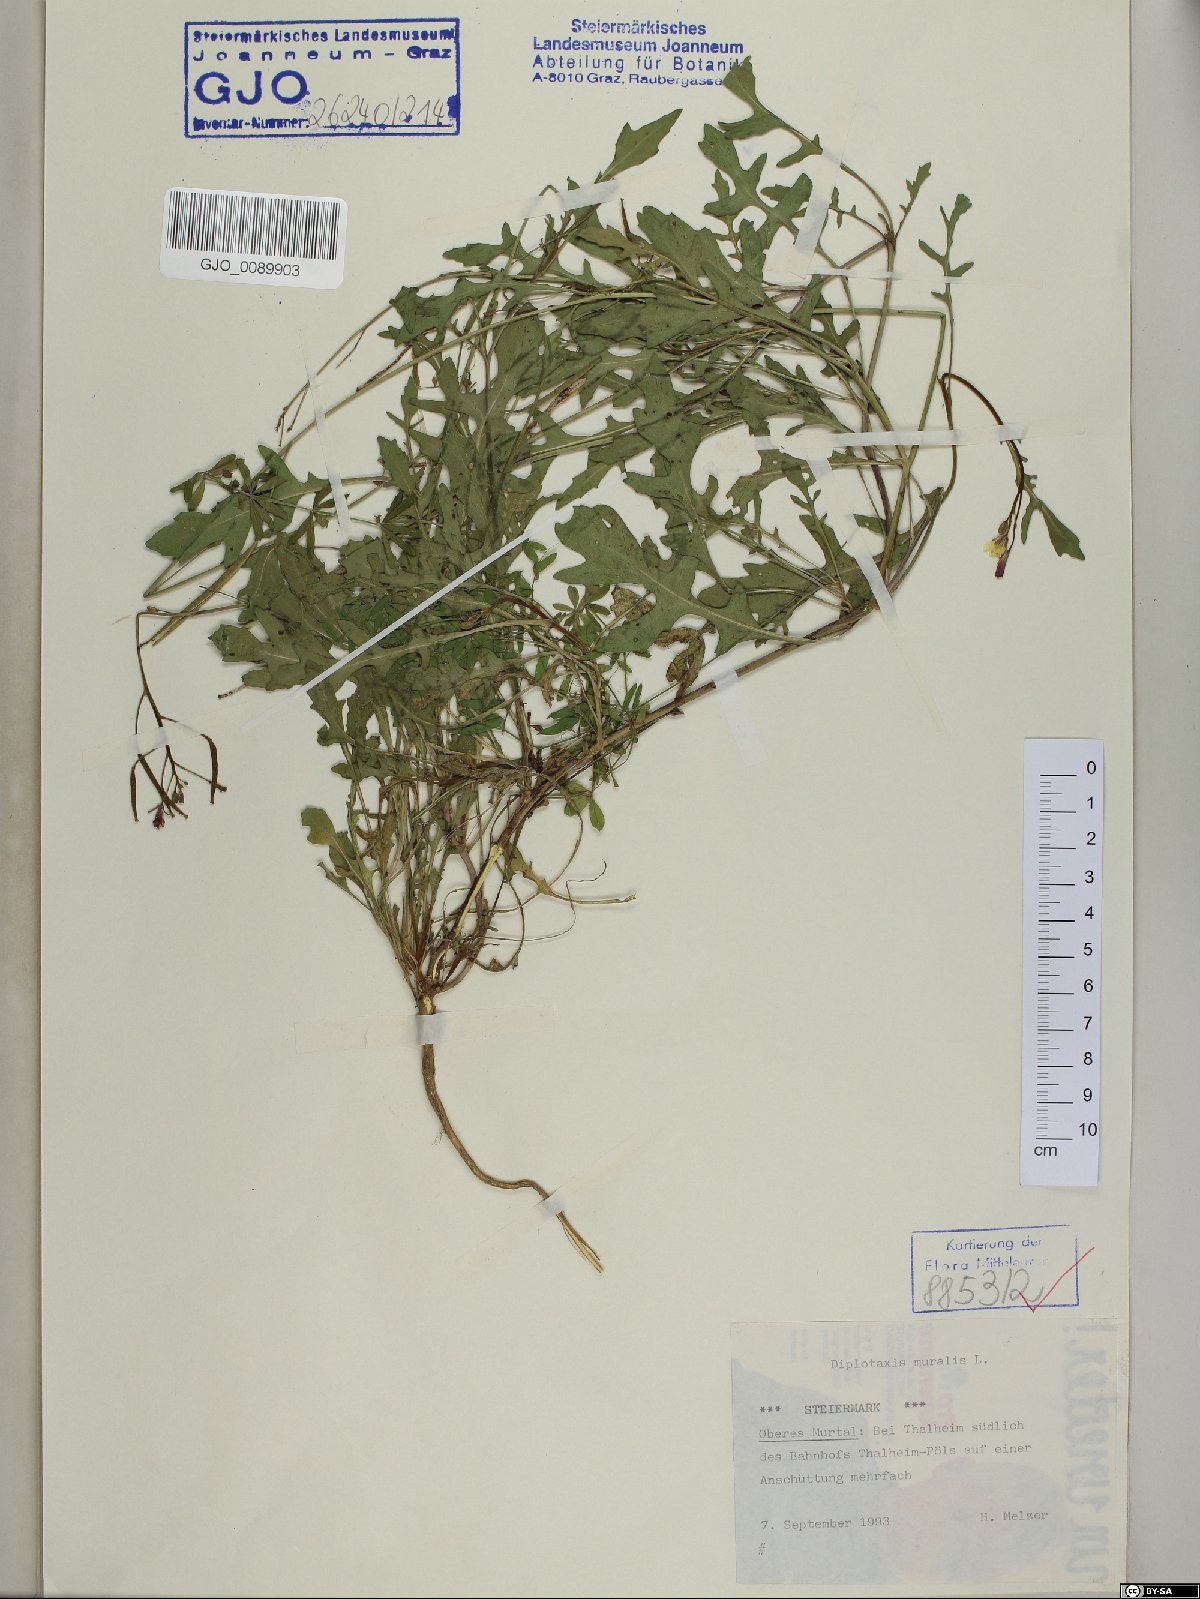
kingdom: Plantae
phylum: Tracheophyta
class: Magnoliopsida
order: Brassicales
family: Brassicaceae
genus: Diplotaxis
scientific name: Diplotaxis muralis
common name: Annual wall-rocket
